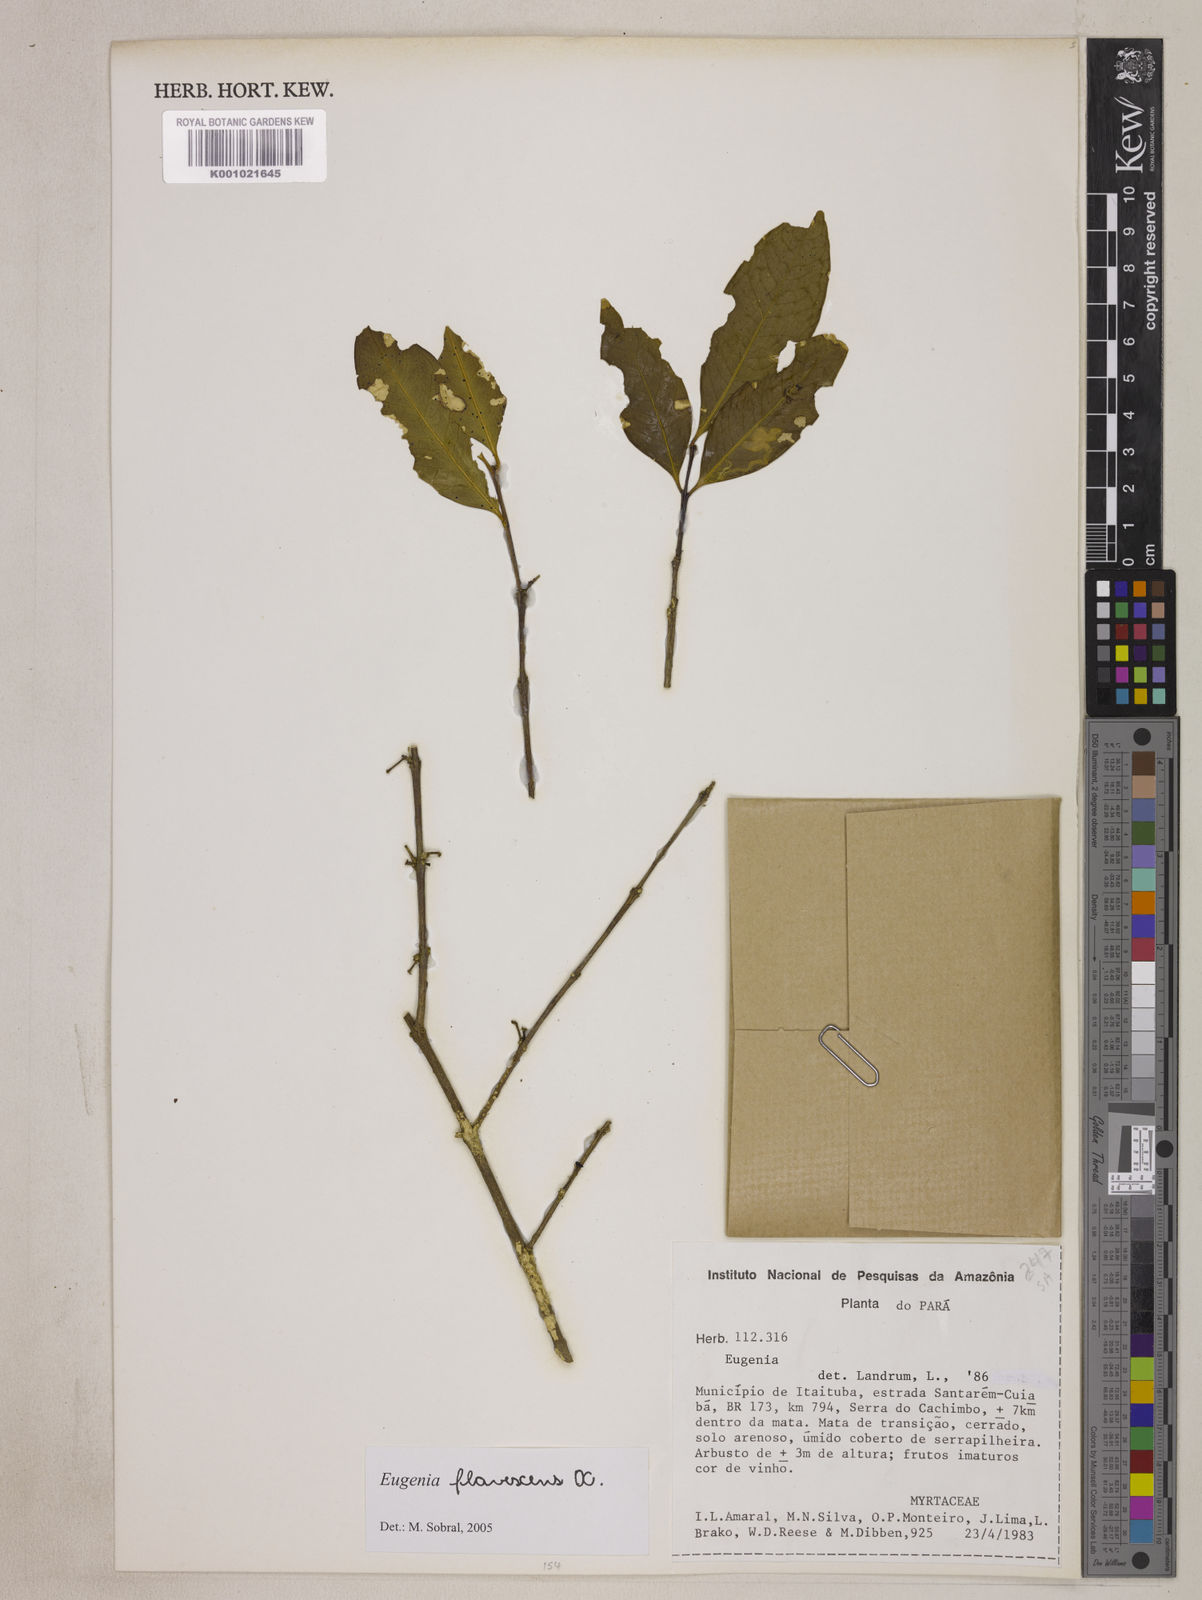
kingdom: Plantae
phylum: Tracheophyta
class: Magnoliopsida
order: Myrtales
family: Myrtaceae
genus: Eugenia
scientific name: Eugenia flavescens
